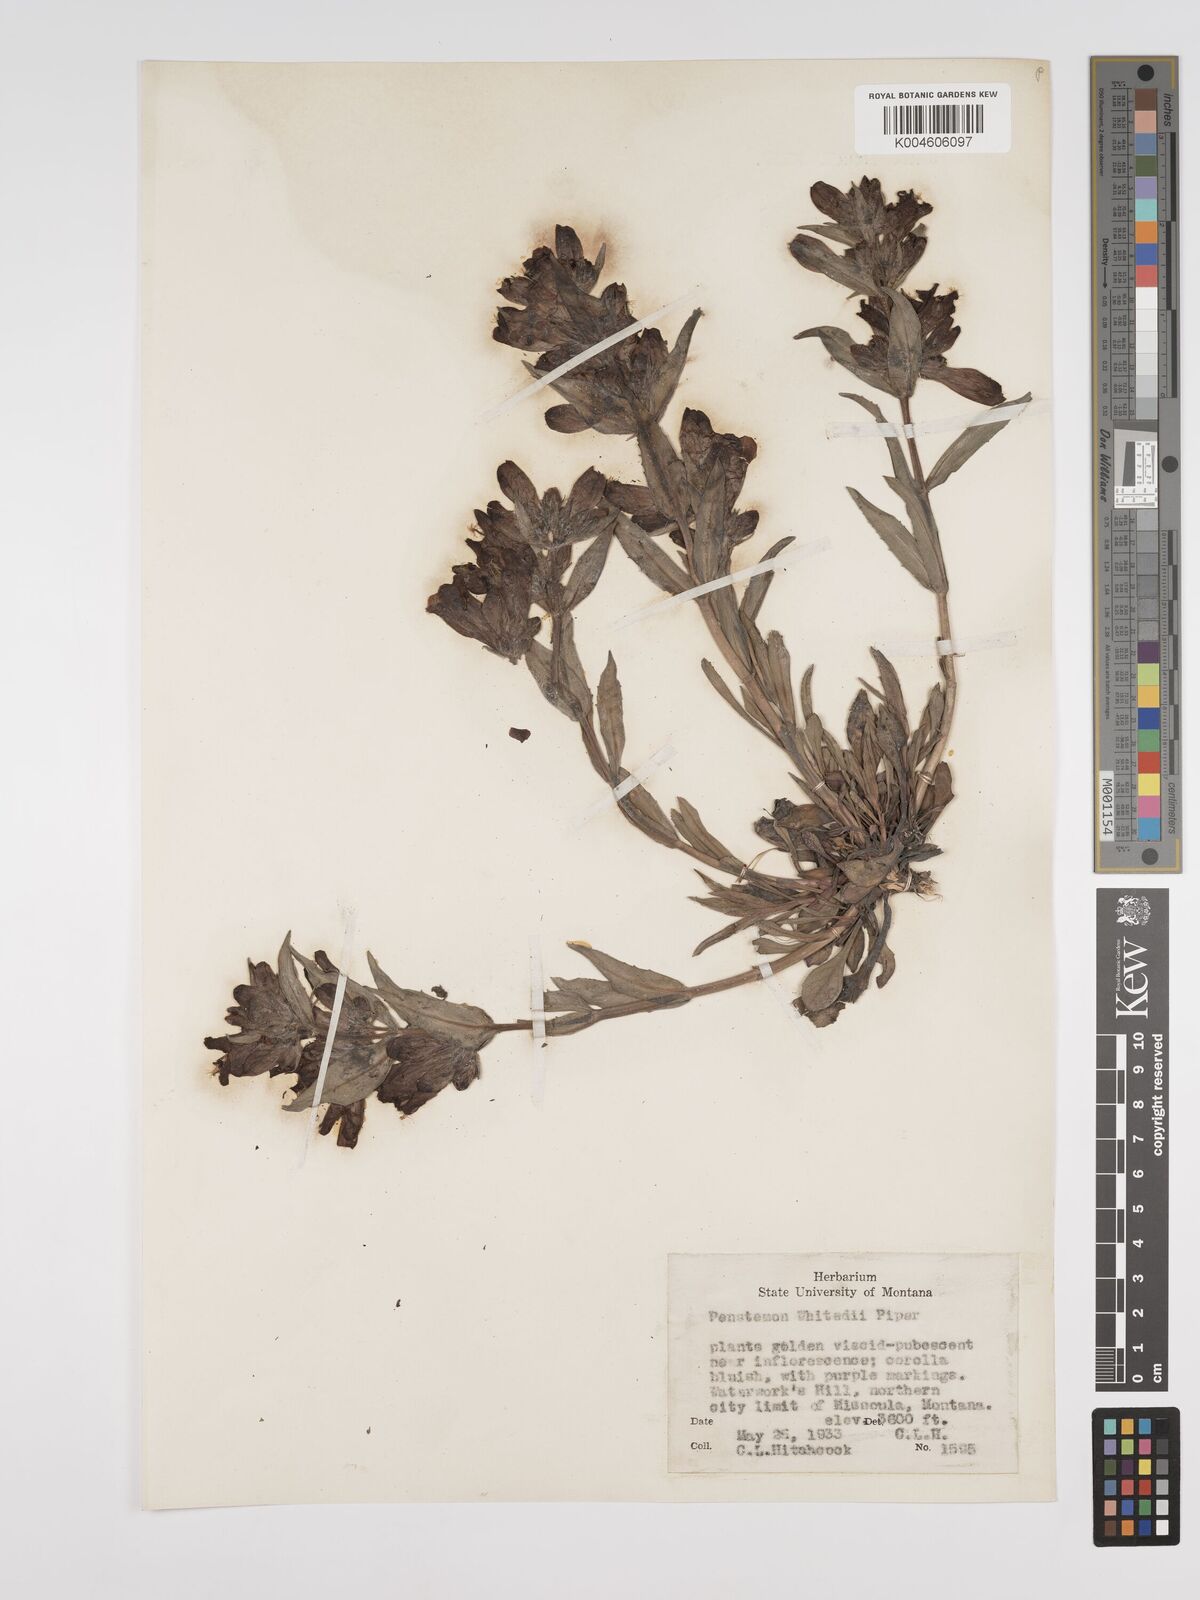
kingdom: Plantae
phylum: Tracheophyta
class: Magnoliopsida
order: Lamiales
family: Plantaginaceae
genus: Penstemon
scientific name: Penstemon eriantherus
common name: Crested beardtongue
